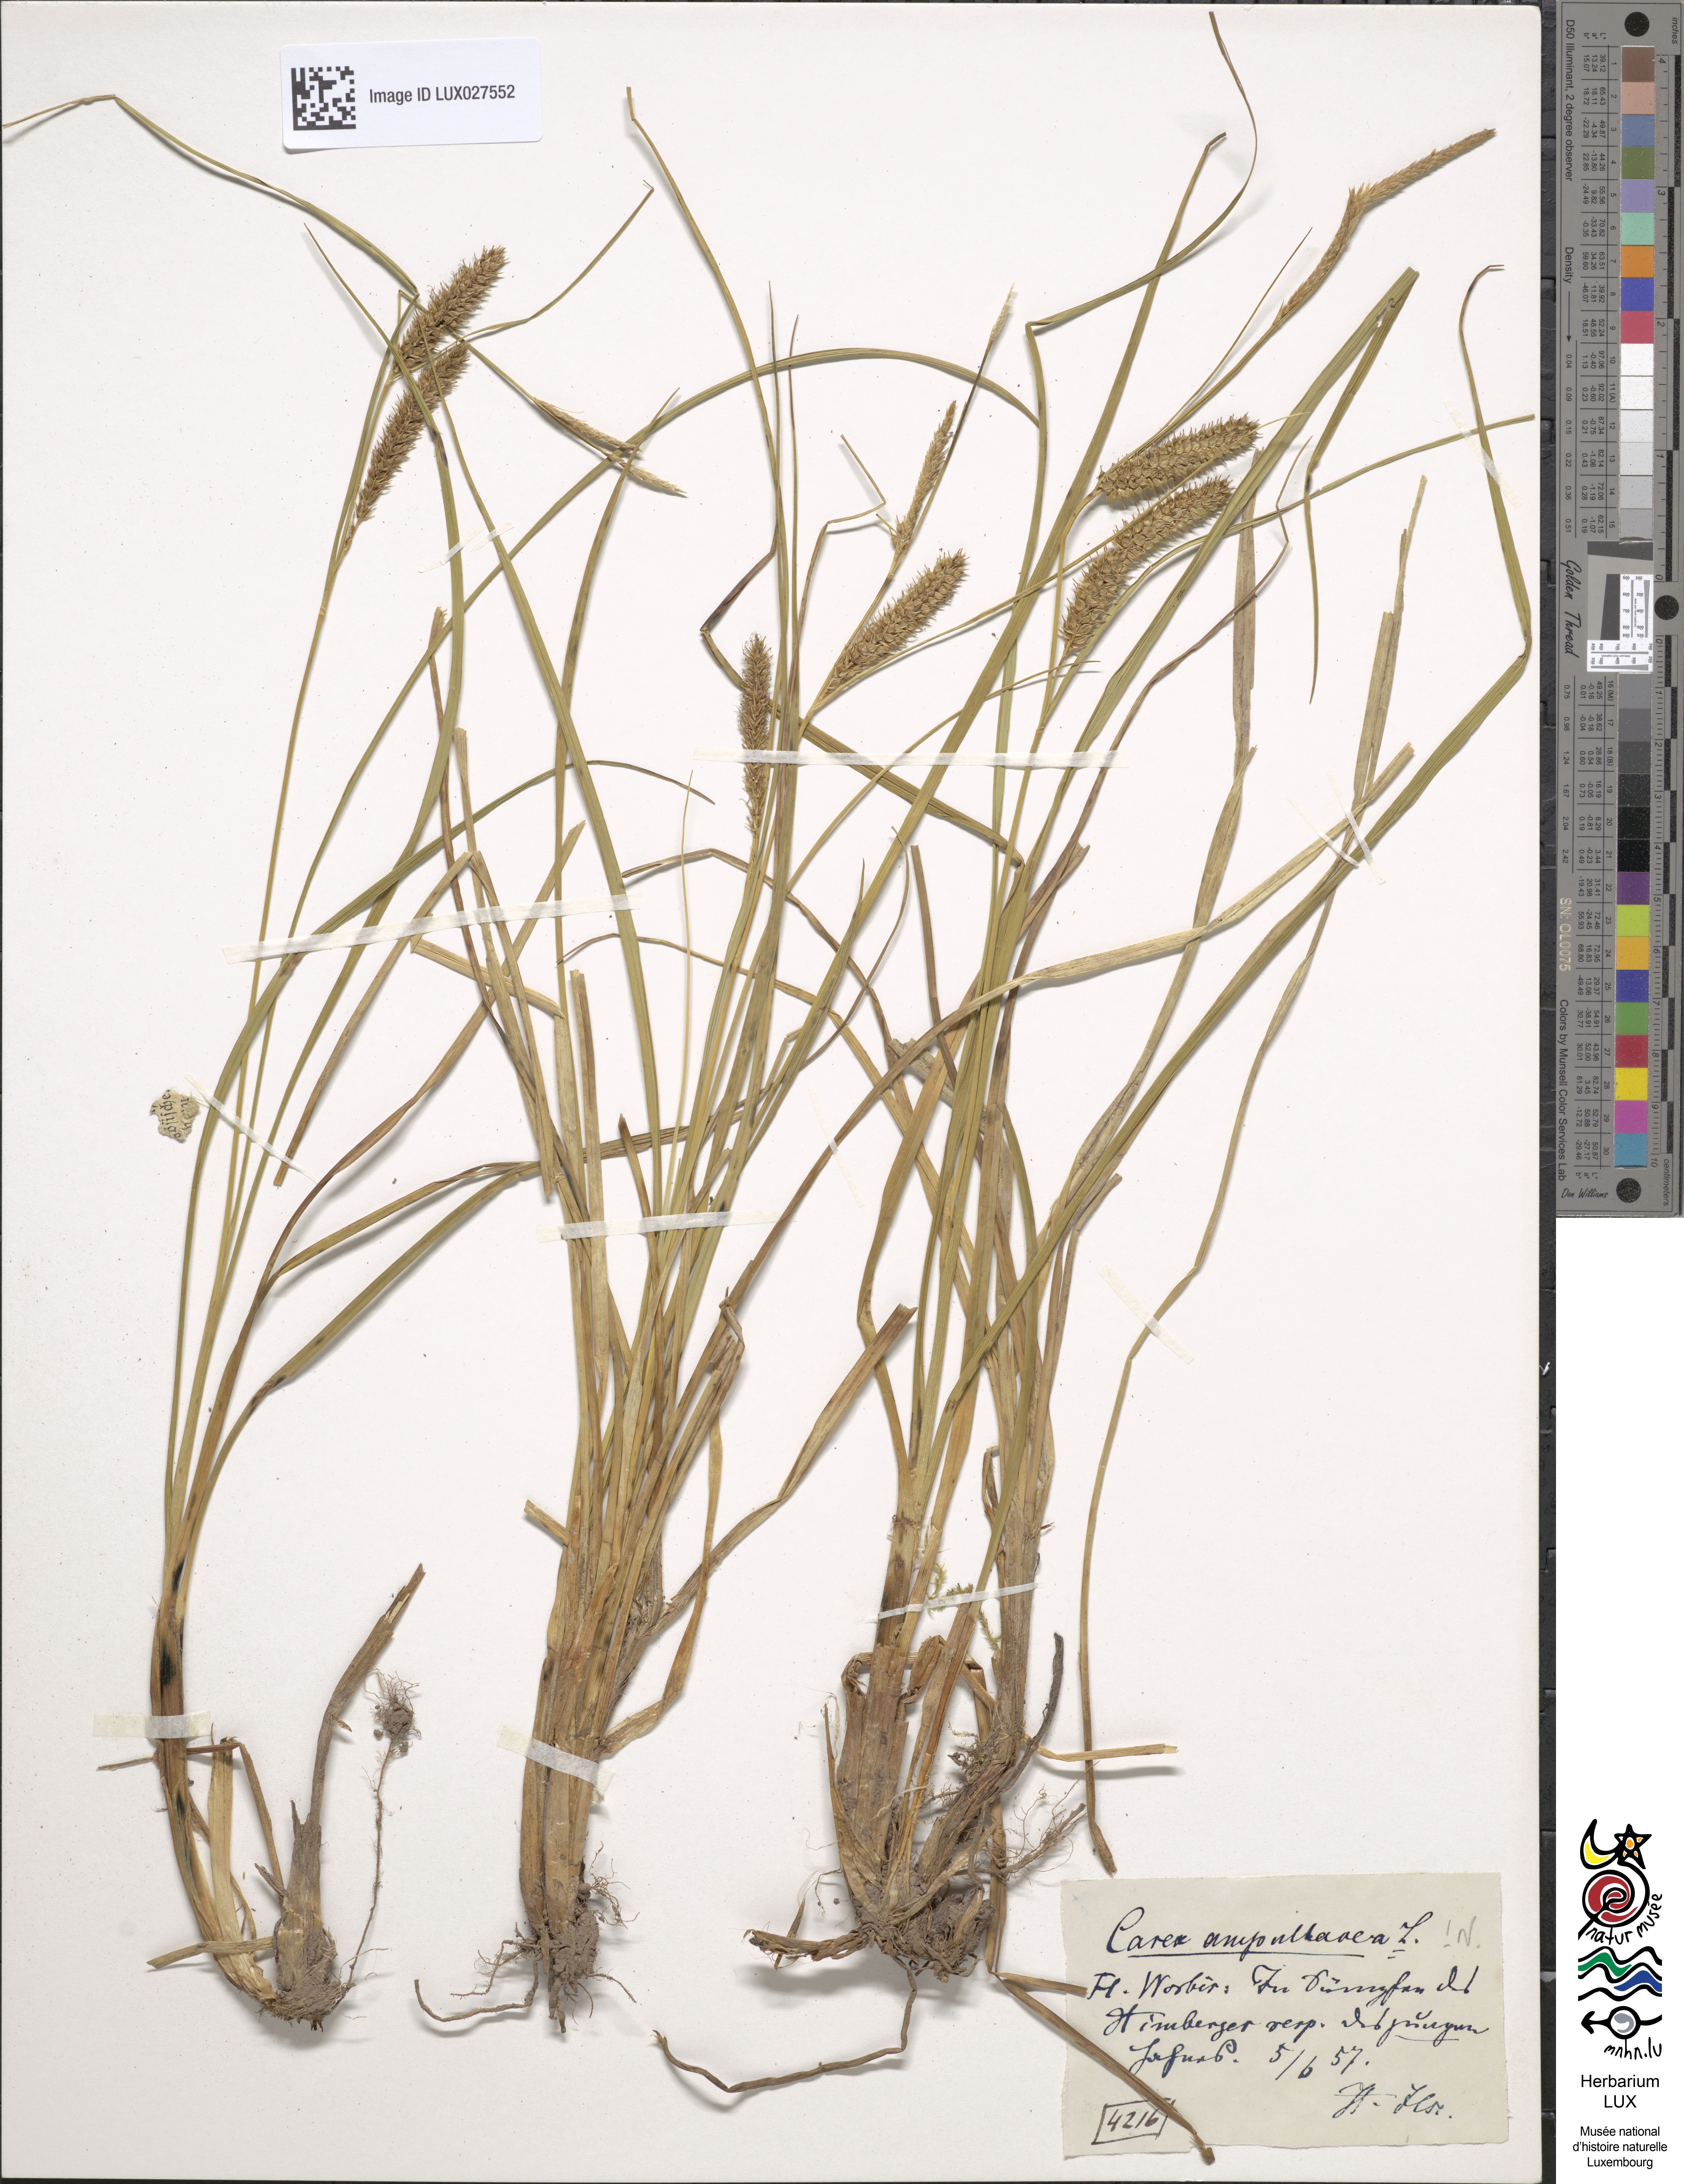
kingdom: Plantae
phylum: Tracheophyta
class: Liliopsida
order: Poales
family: Cyperaceae
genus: Carex
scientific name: Carex rostrata
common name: Bottle sedge
